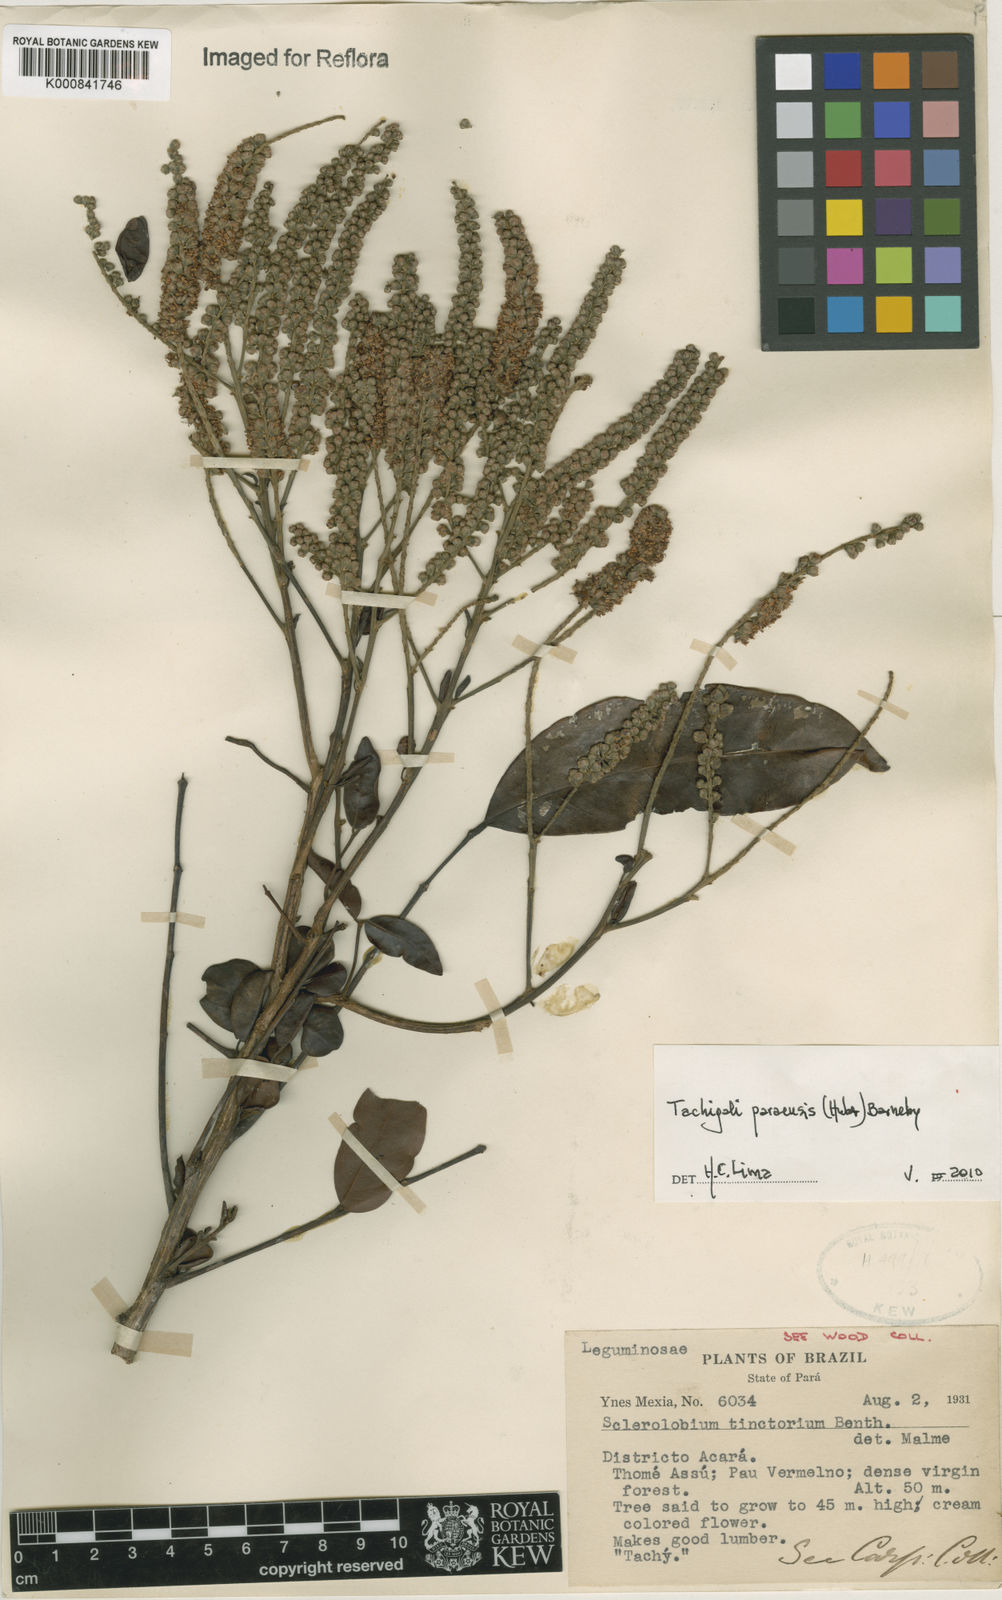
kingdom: Plantae
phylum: Tracheophyta
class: Magnoliopsida
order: Fabales
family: Fabaceae
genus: Tachigali
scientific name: Tachigali paraensis
